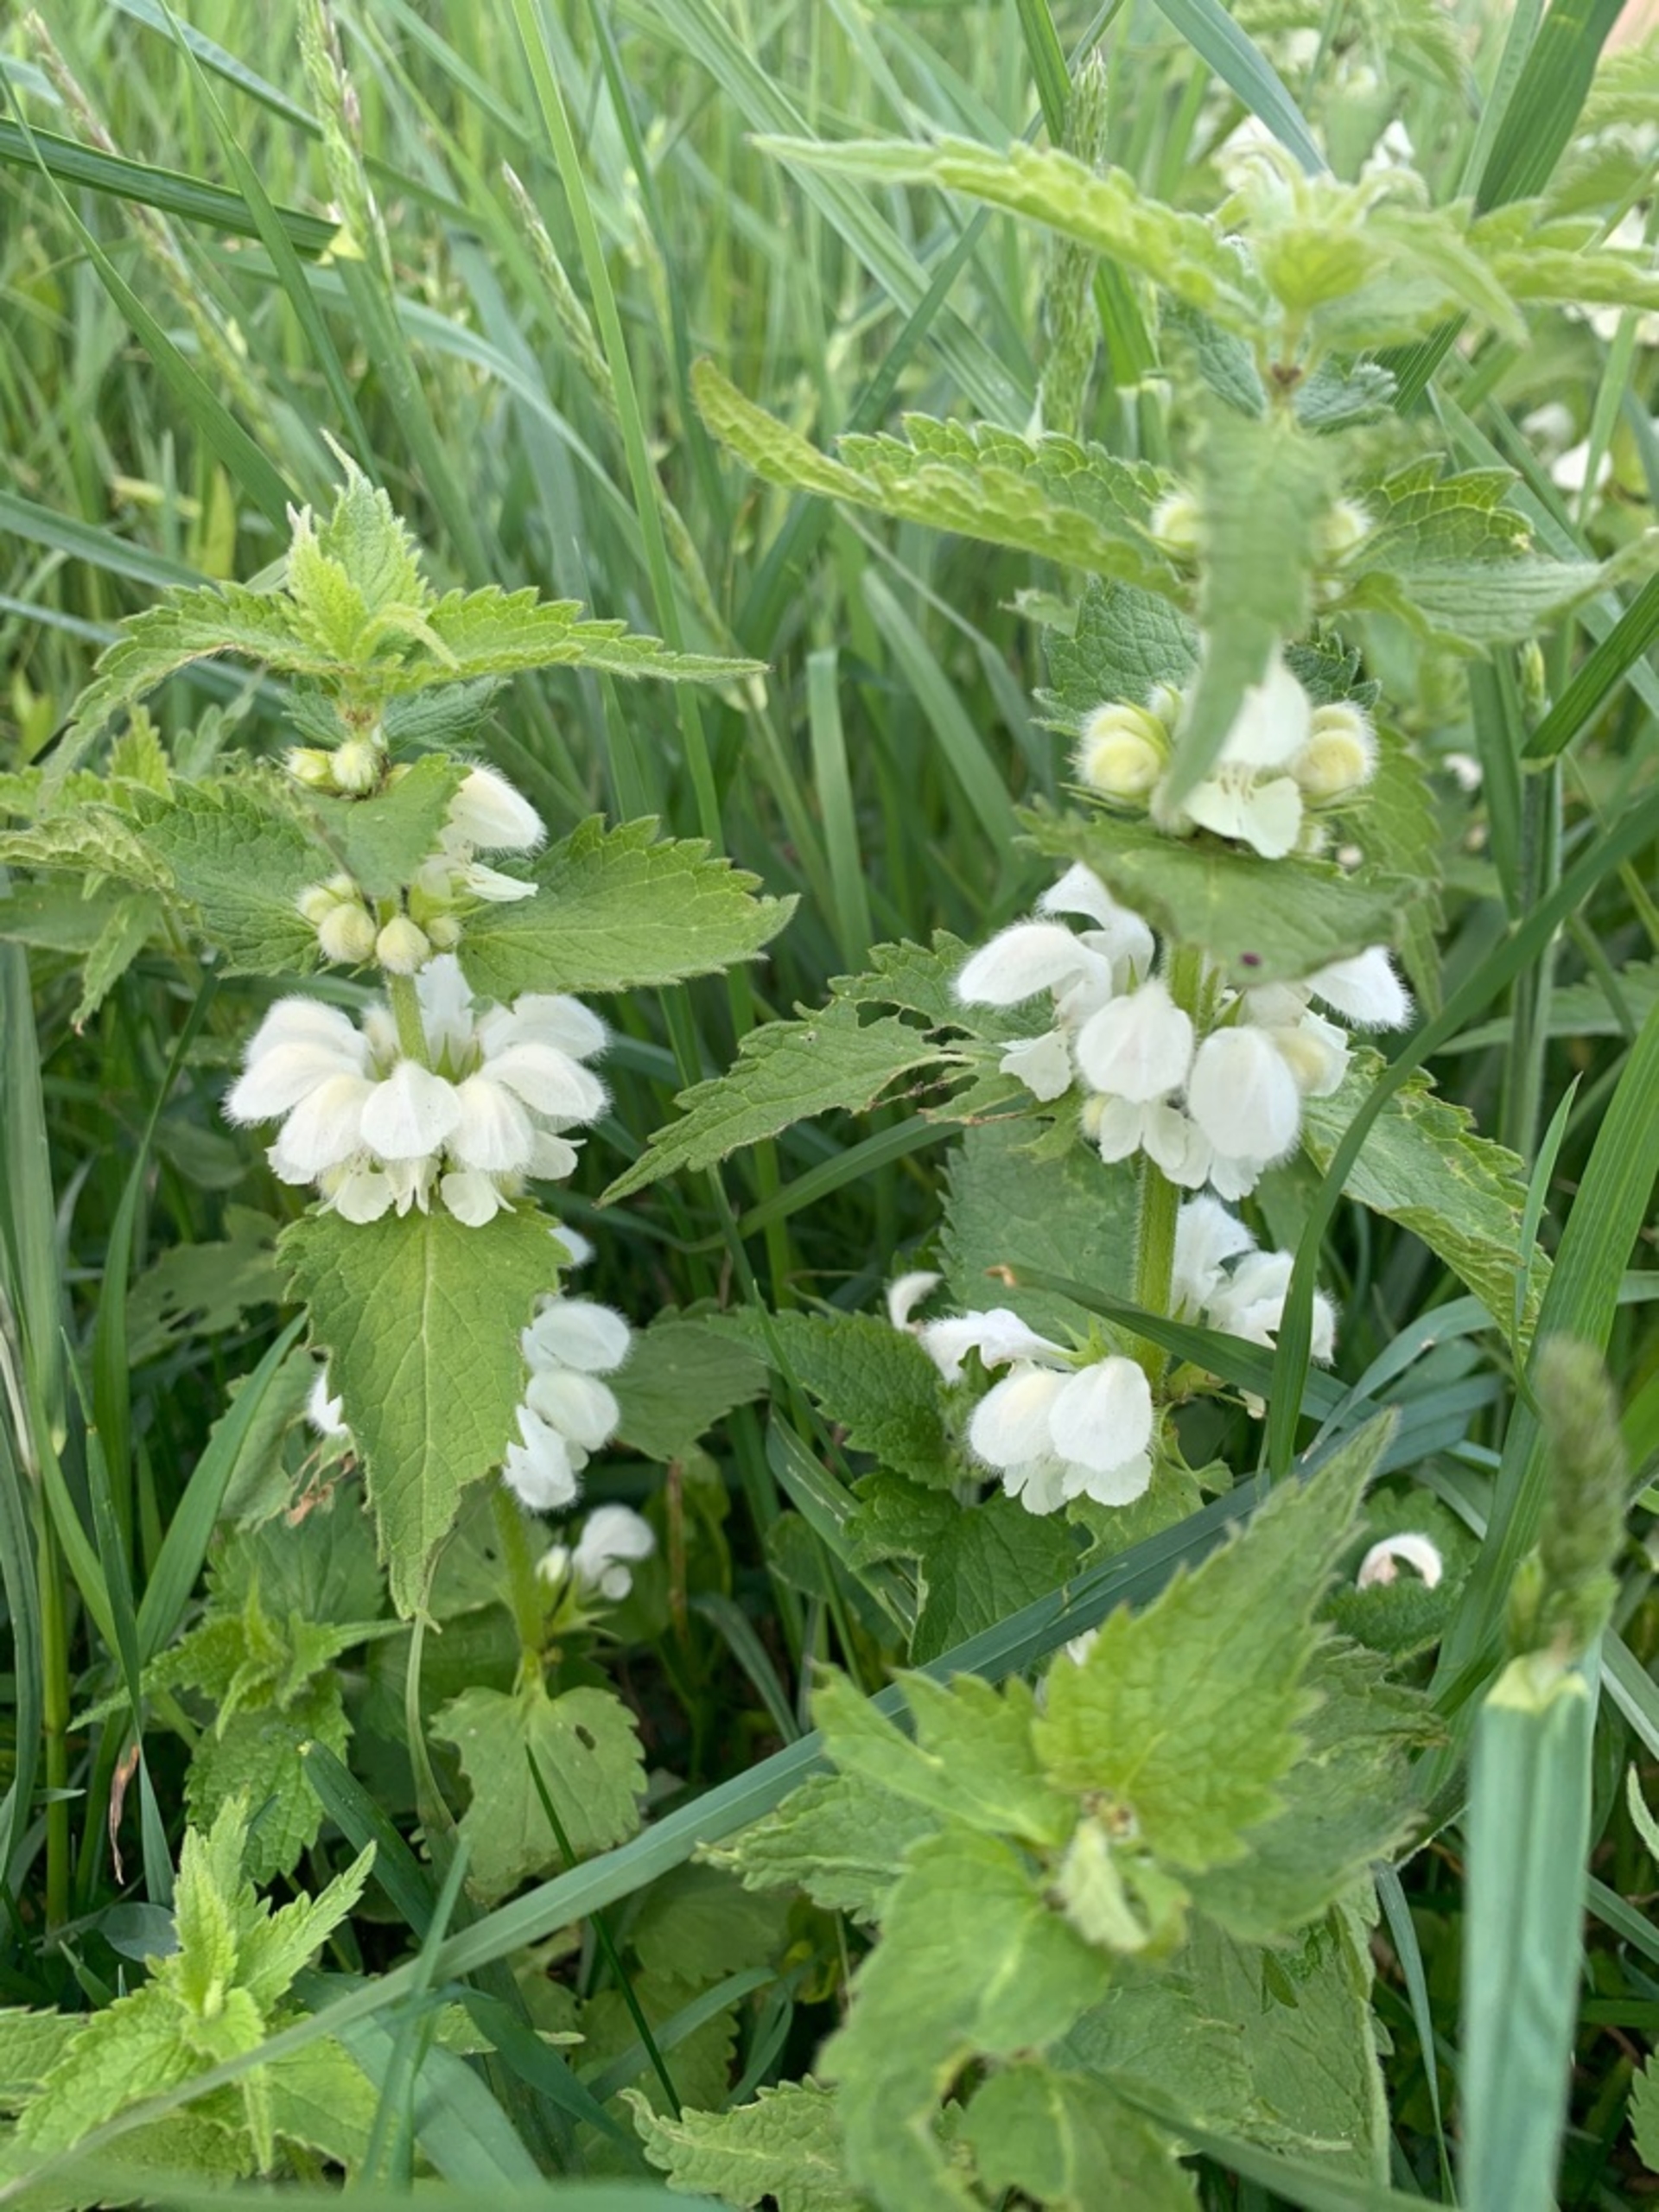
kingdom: Plantae
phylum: Tracheophyta
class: Magnoliopsida
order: Lamiales
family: Lamiaceae
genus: Lamium
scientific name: Lamium album
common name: Døvnælde
